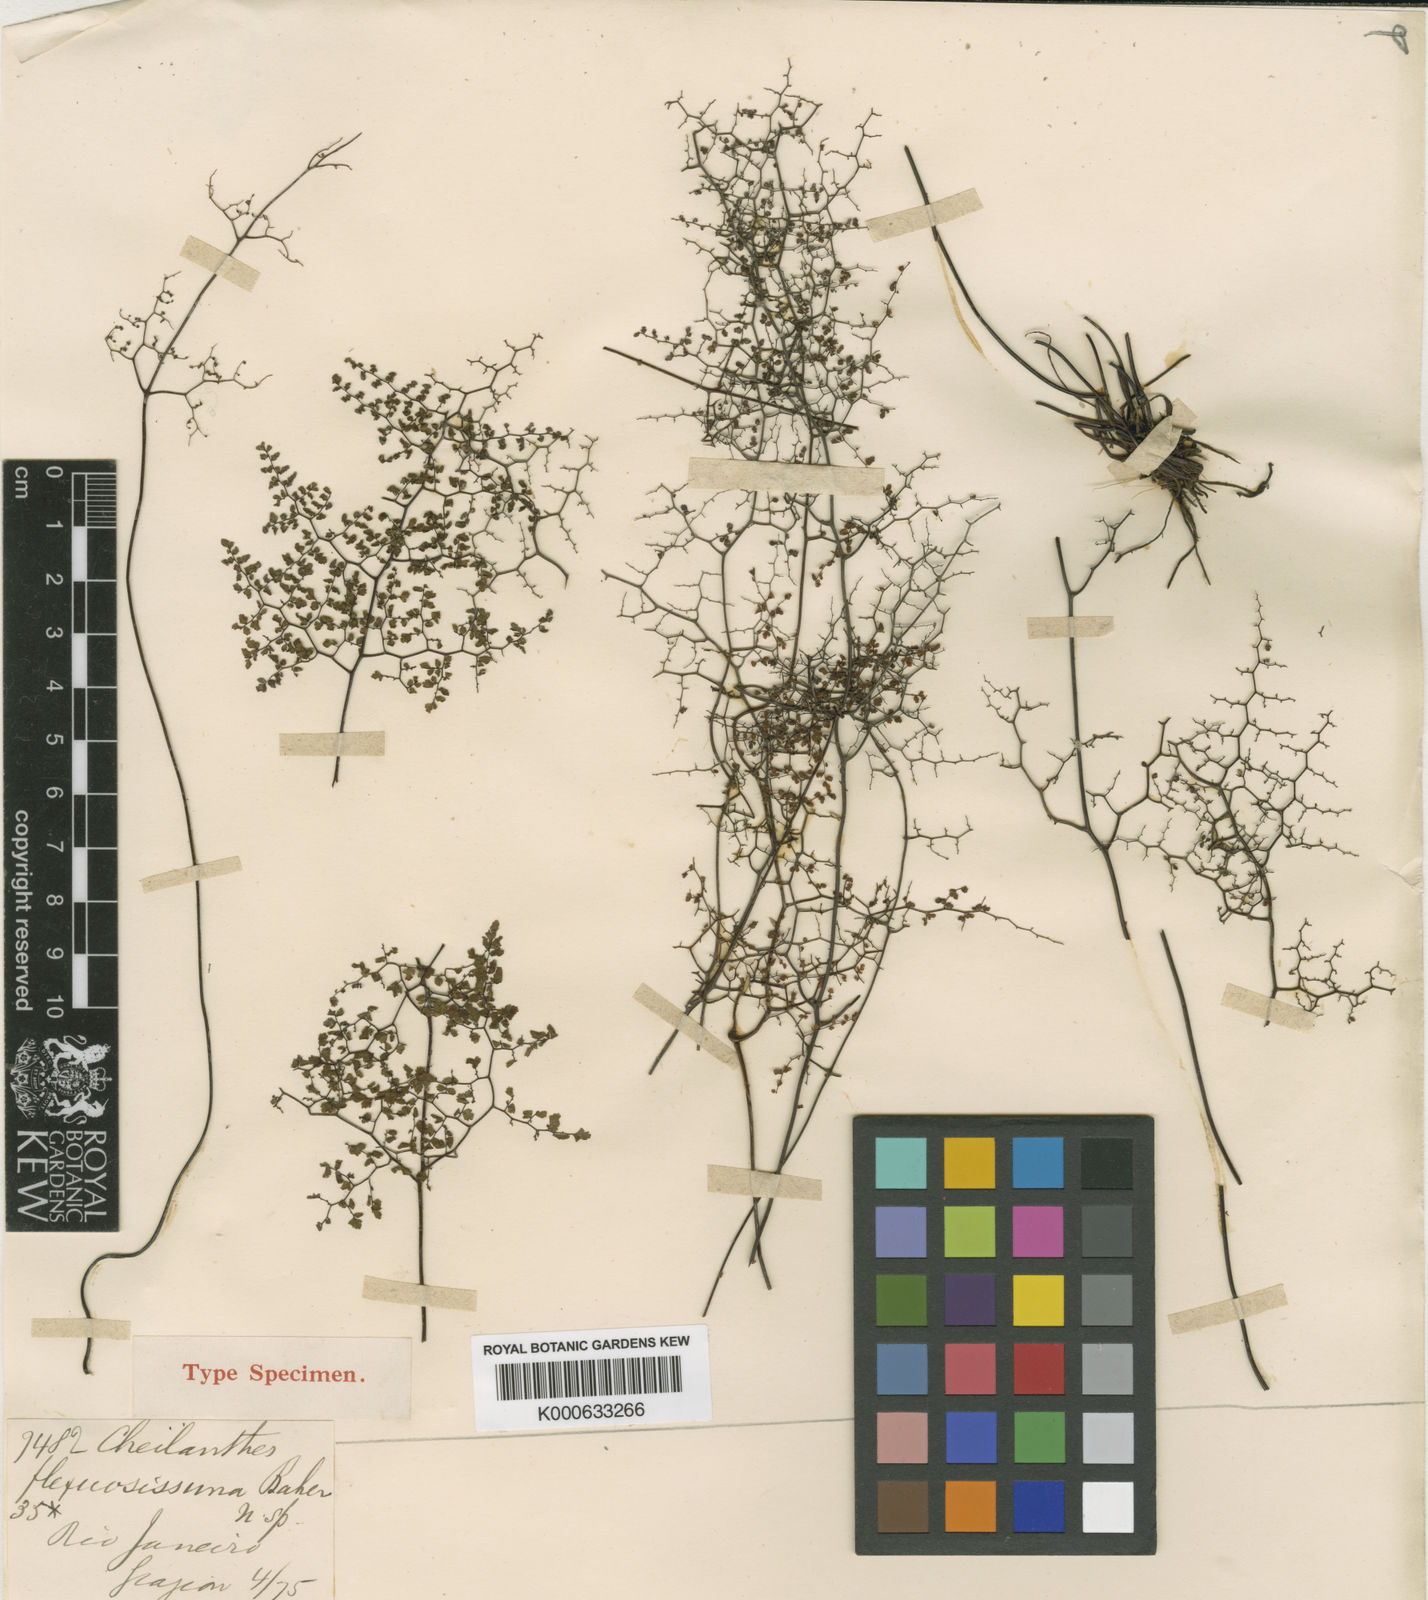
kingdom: Plantae
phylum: Tracheophyta
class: Polypodiopsida
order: Polypodiales
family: Pteridaceae
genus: Adiantopsis
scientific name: Adiantopsis dichotoma
